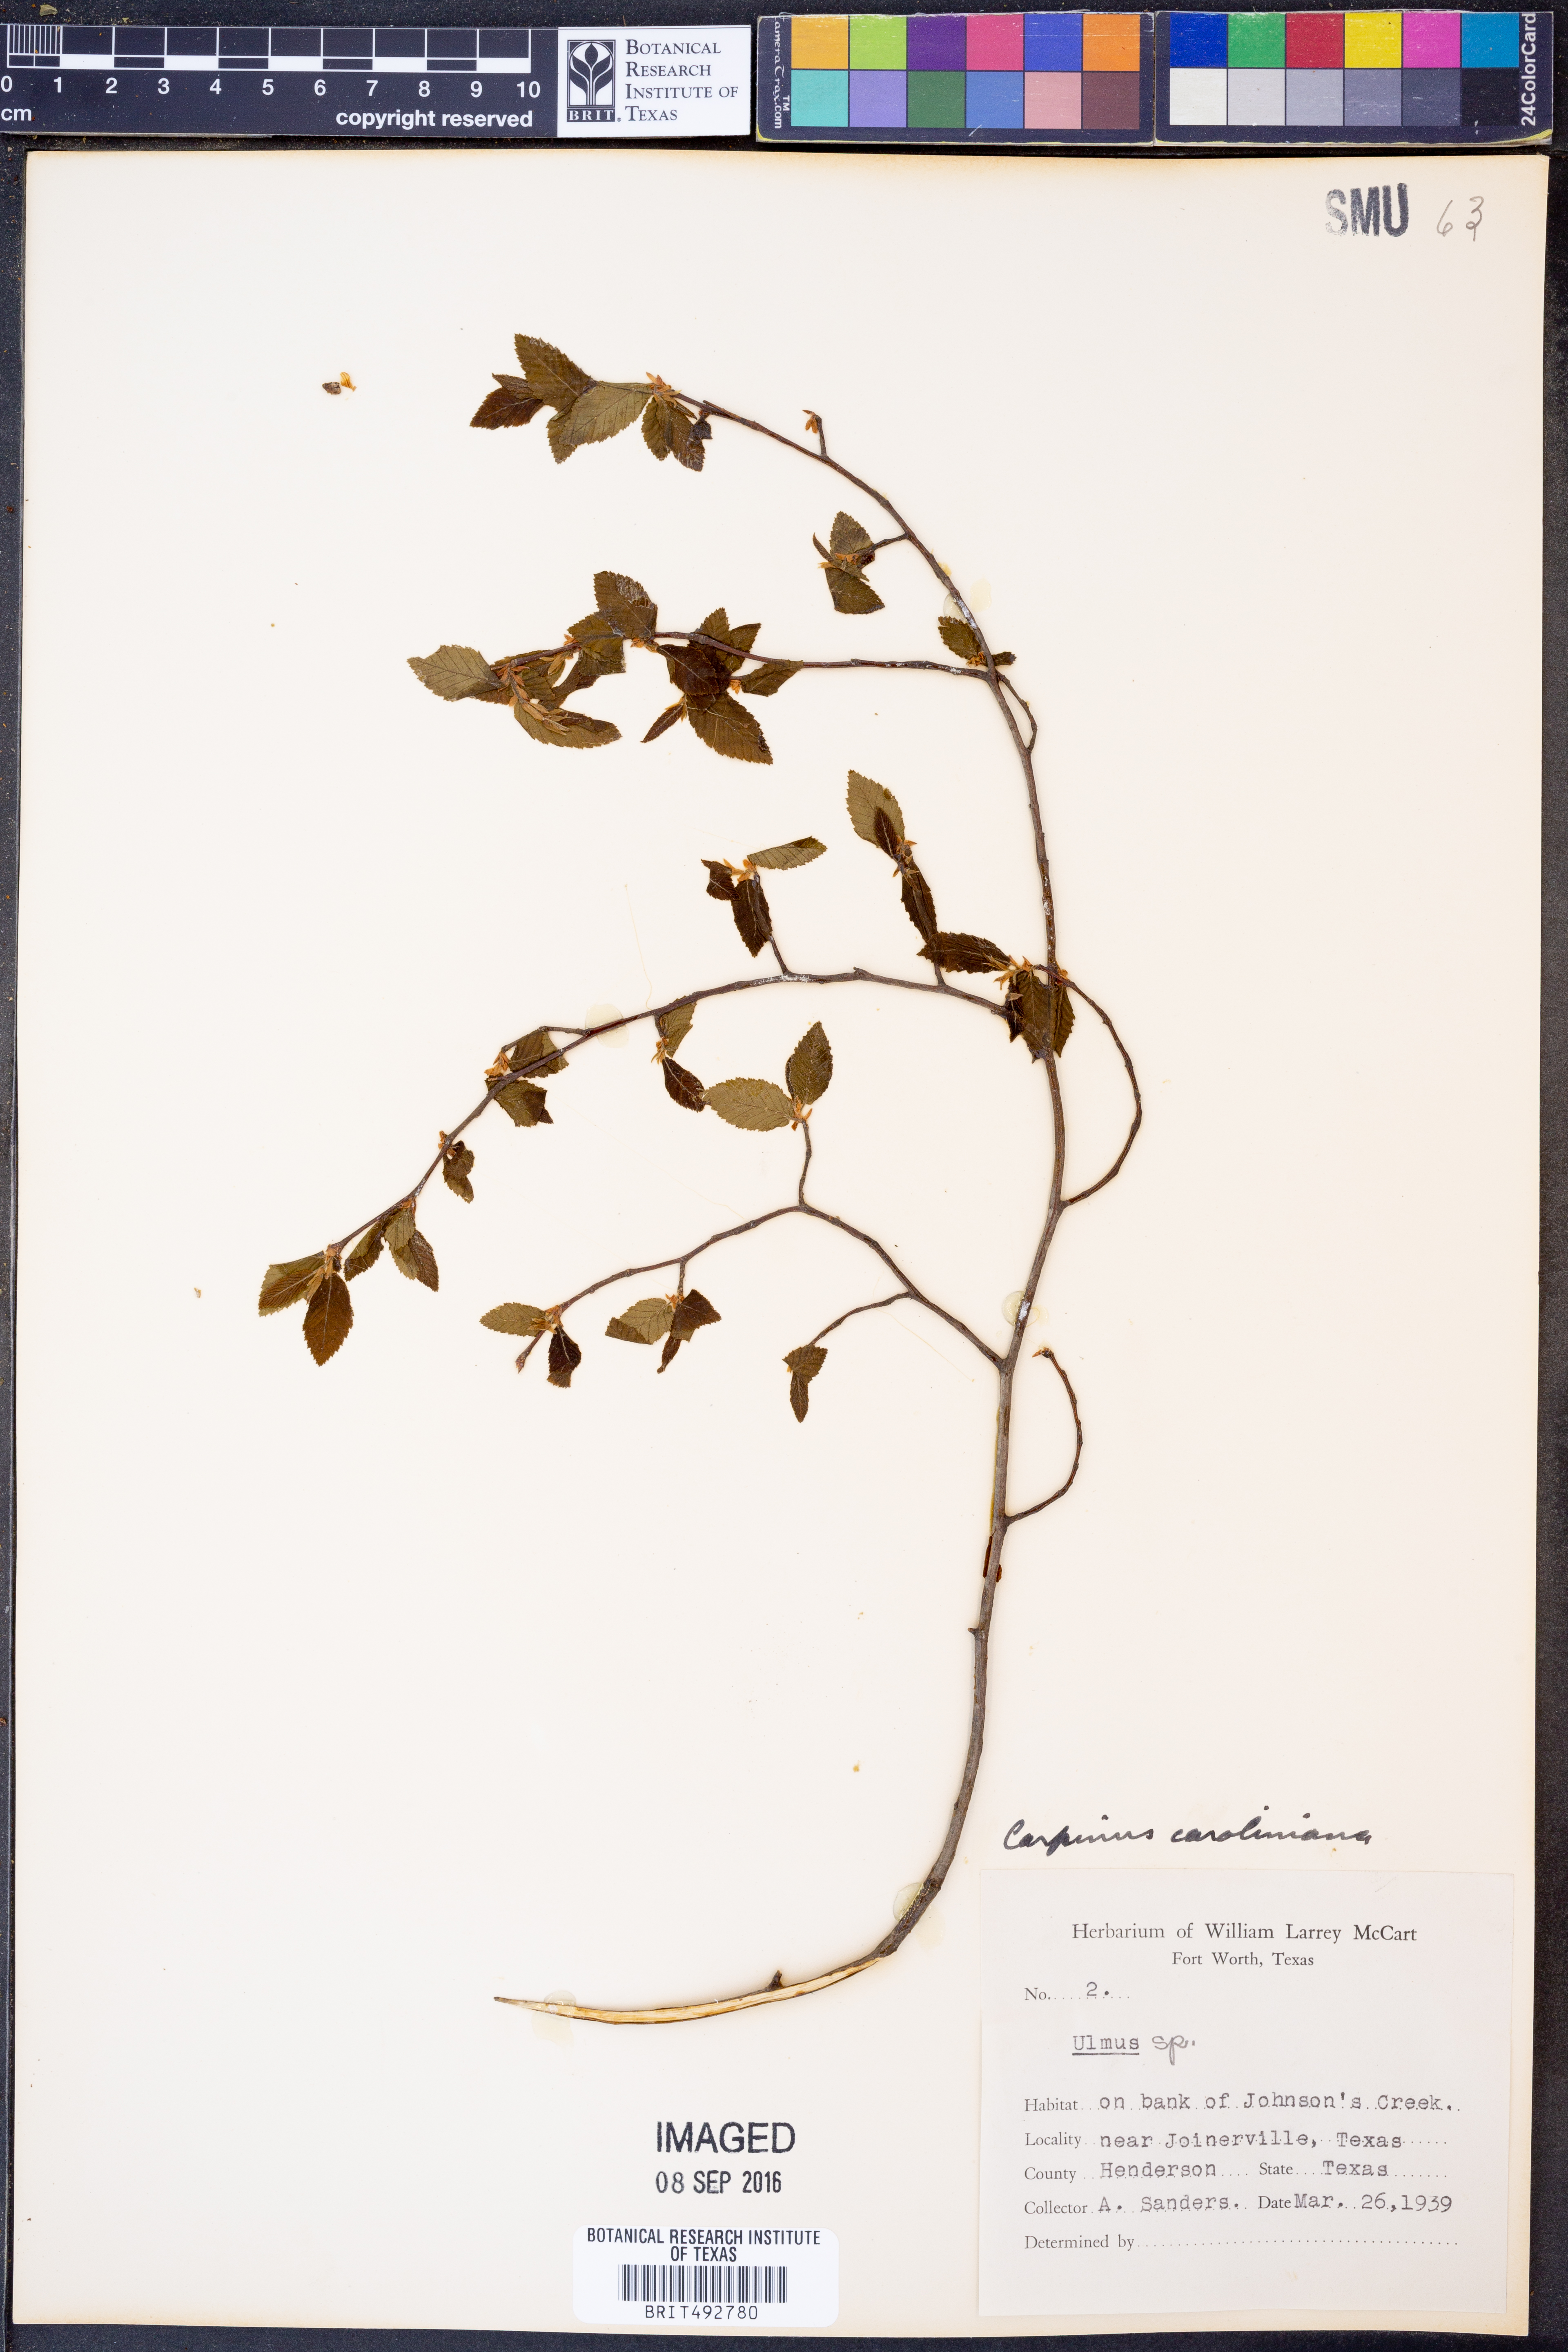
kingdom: Plantae
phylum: Tracheophyta
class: Magnoliopsida
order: Fagales
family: Betulaceae
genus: Carpinus
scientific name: Carpinus caroliniana
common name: American hornbeam
